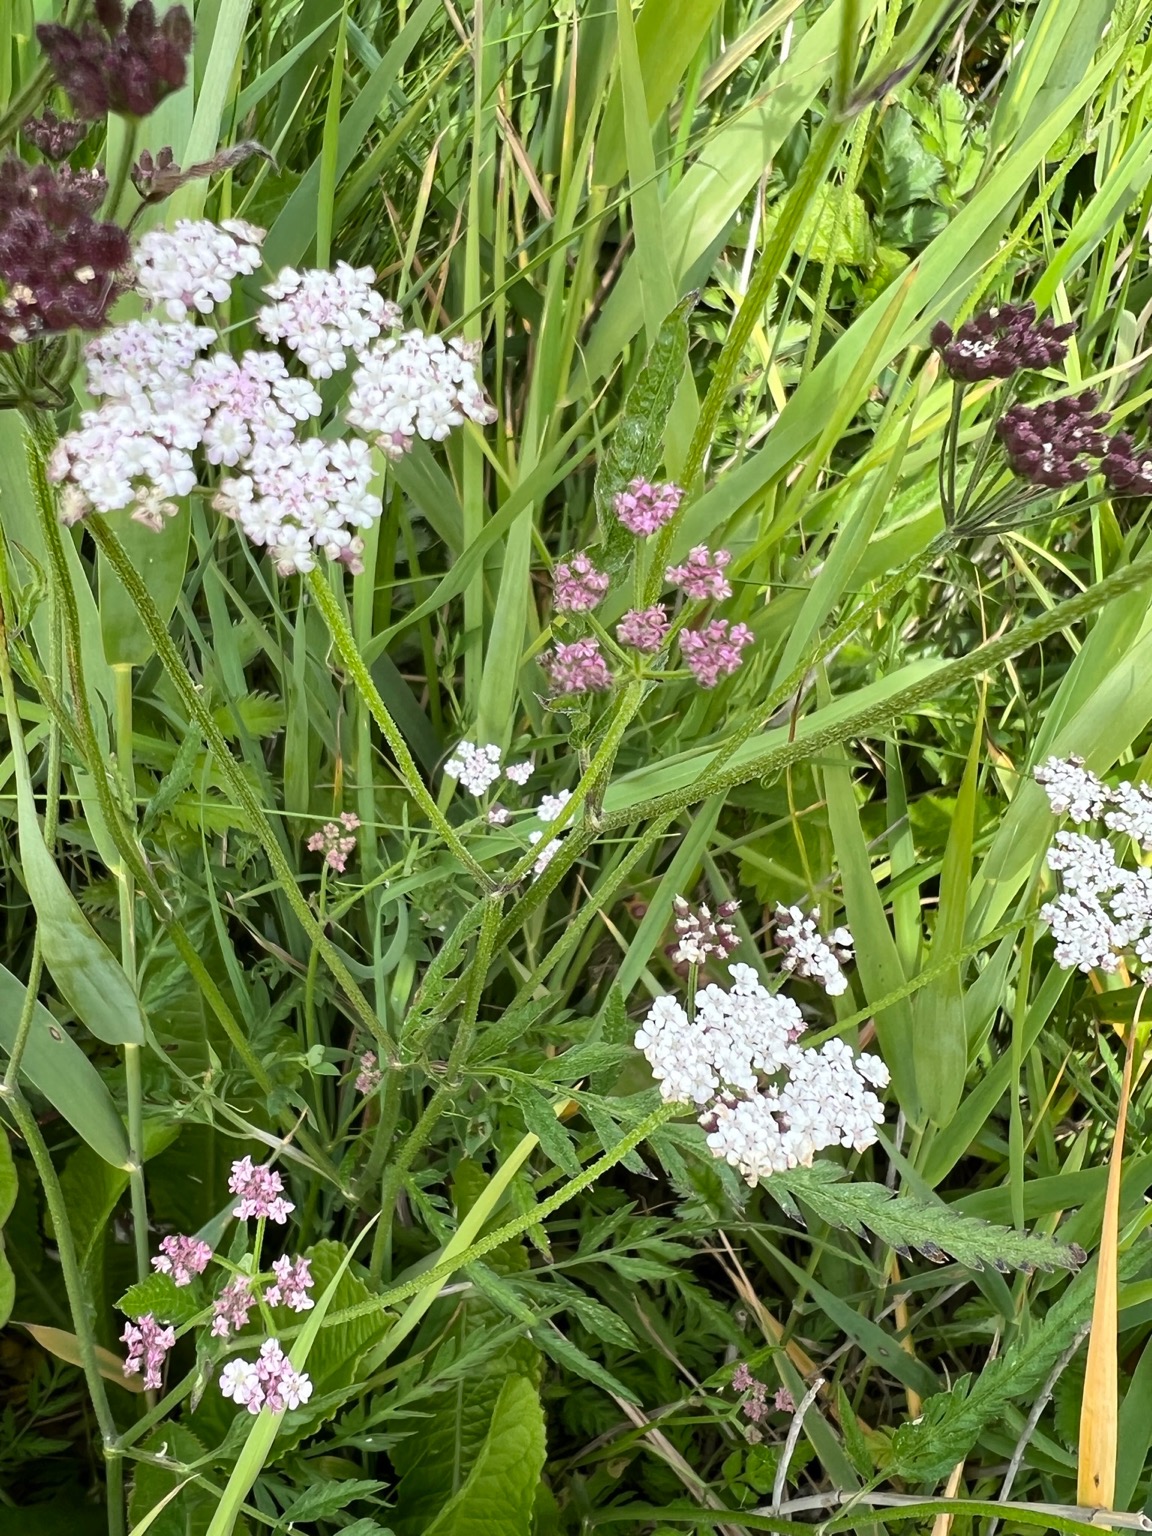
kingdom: Plantae
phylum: Tracheophyta
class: Magnoliopsida
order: Apiales
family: Apiaceae
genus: Torilis
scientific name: Torilis japonica
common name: Hvas randfrø
